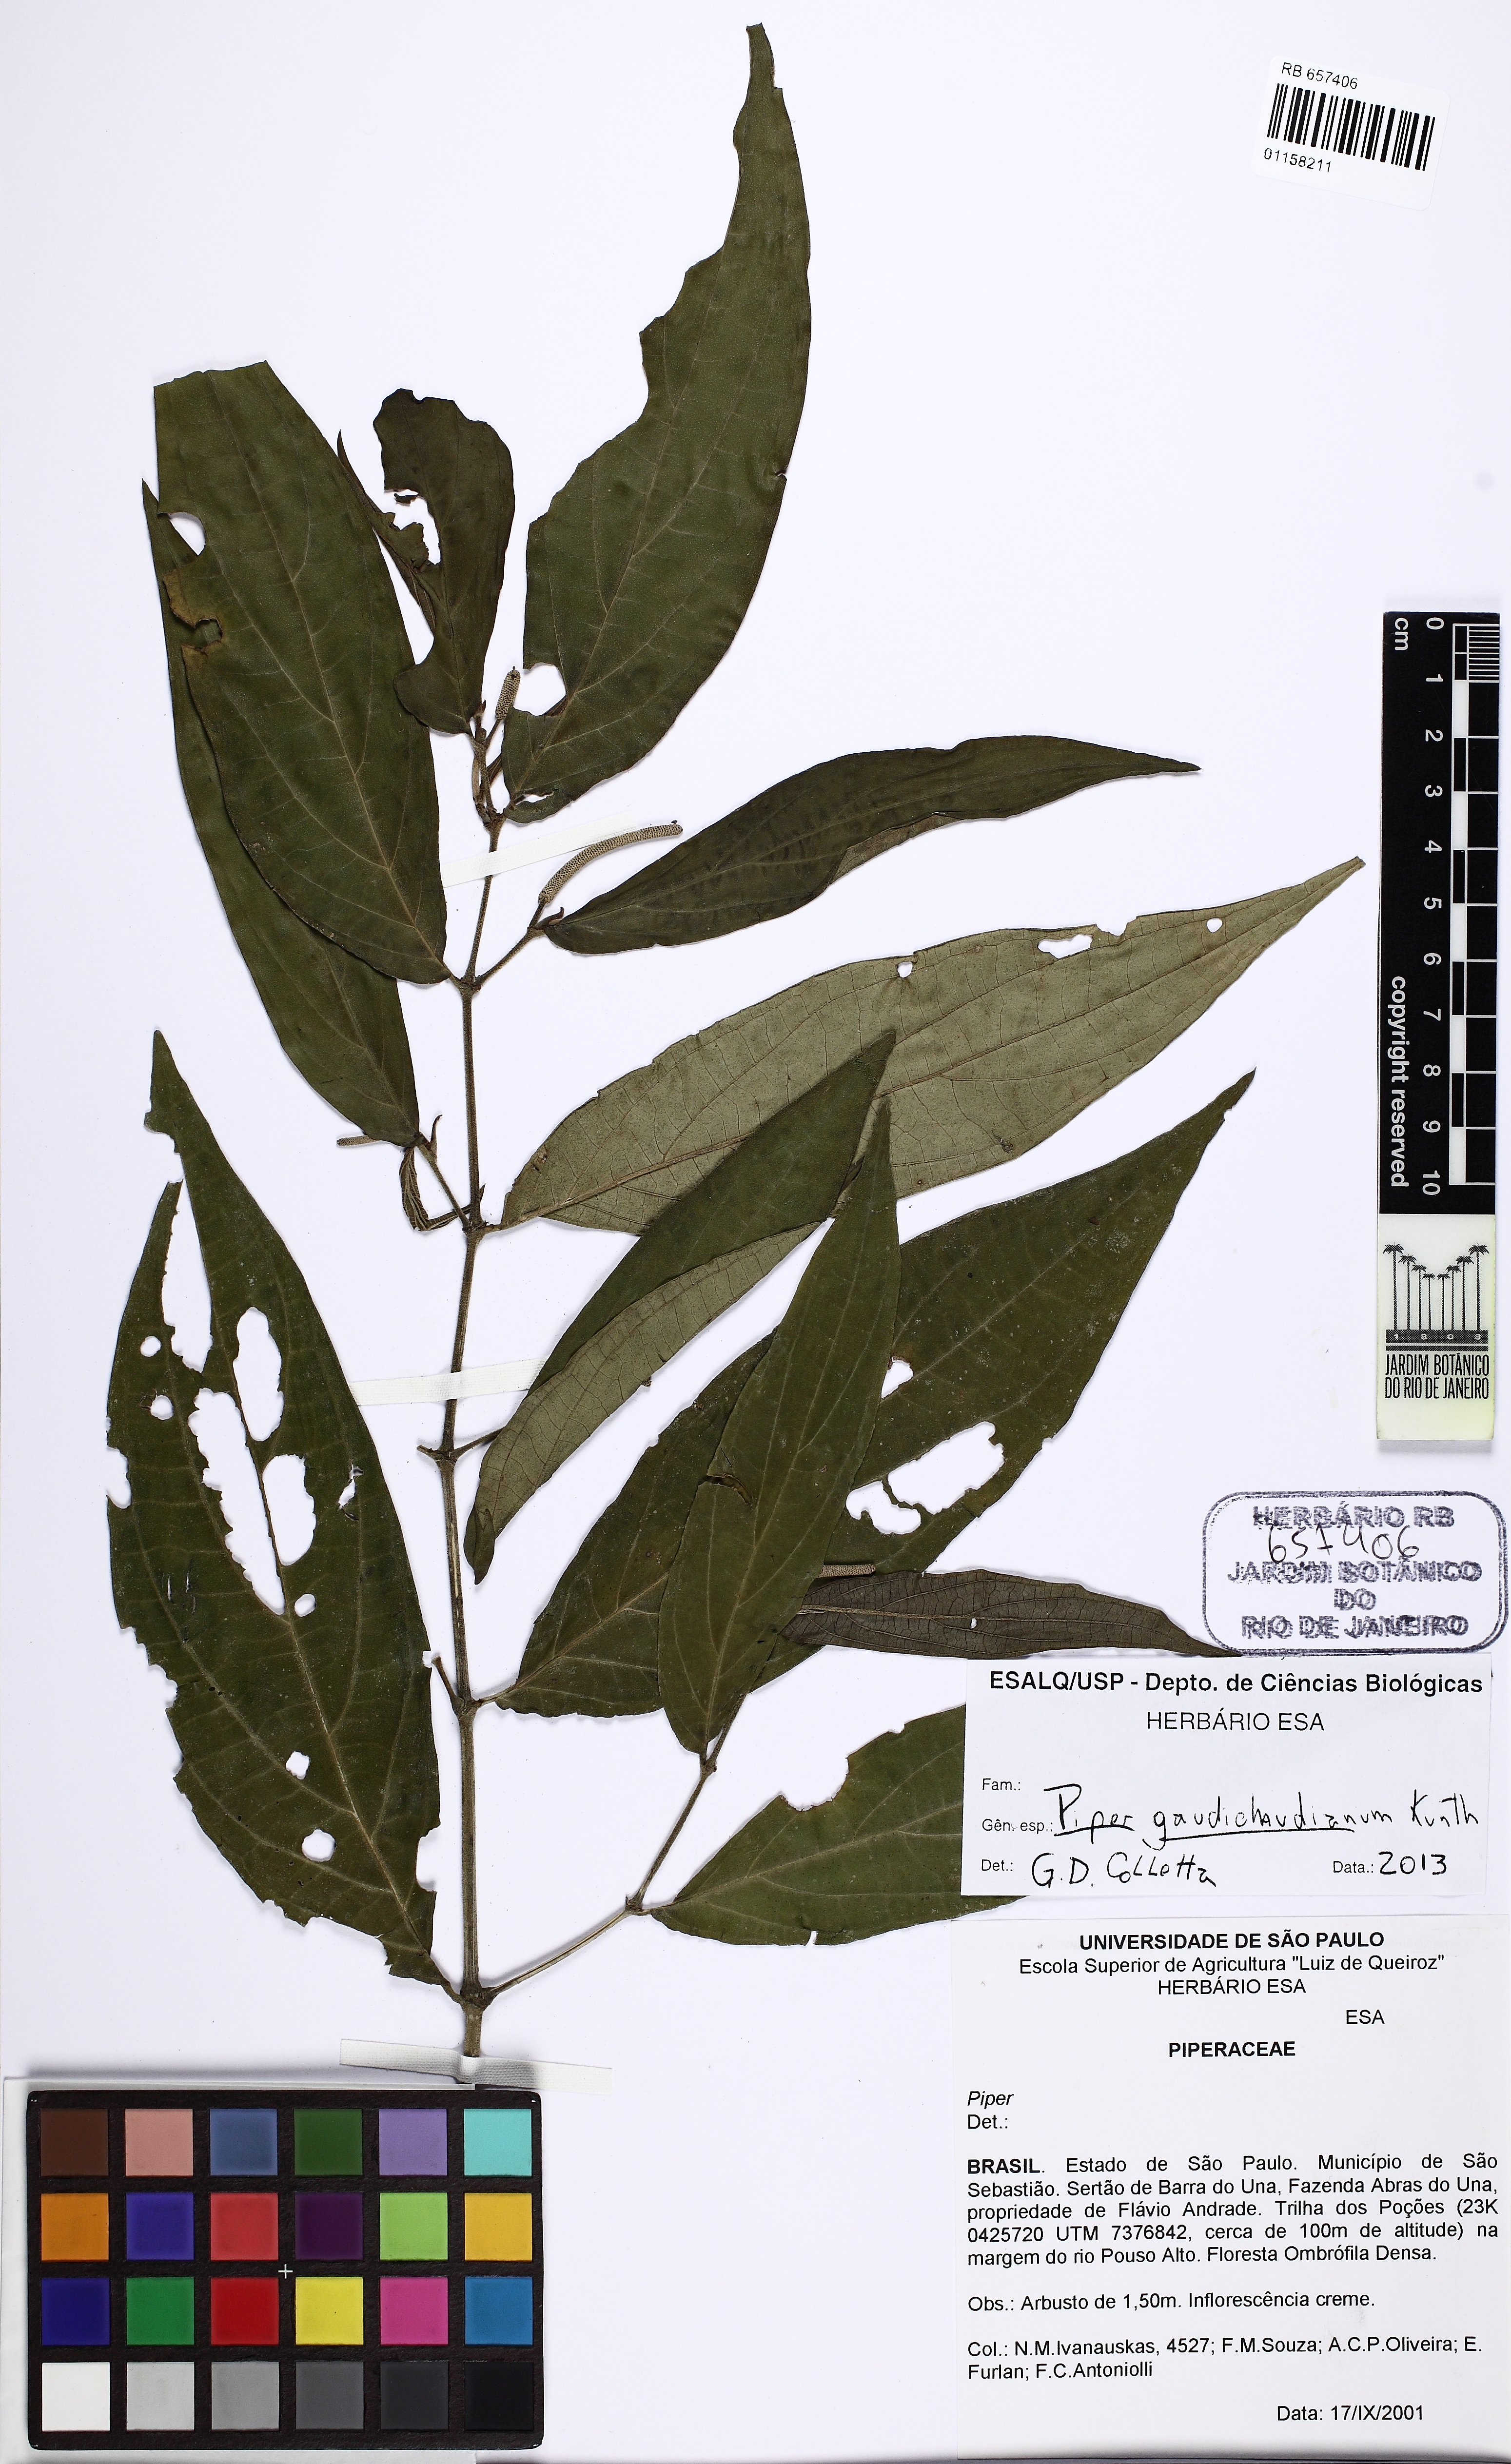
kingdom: Plantae
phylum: Tracheophyta
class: Magnoliopsida
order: Piperales
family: Piperaceae
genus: Piper
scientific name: Piper gaudichaudianum
